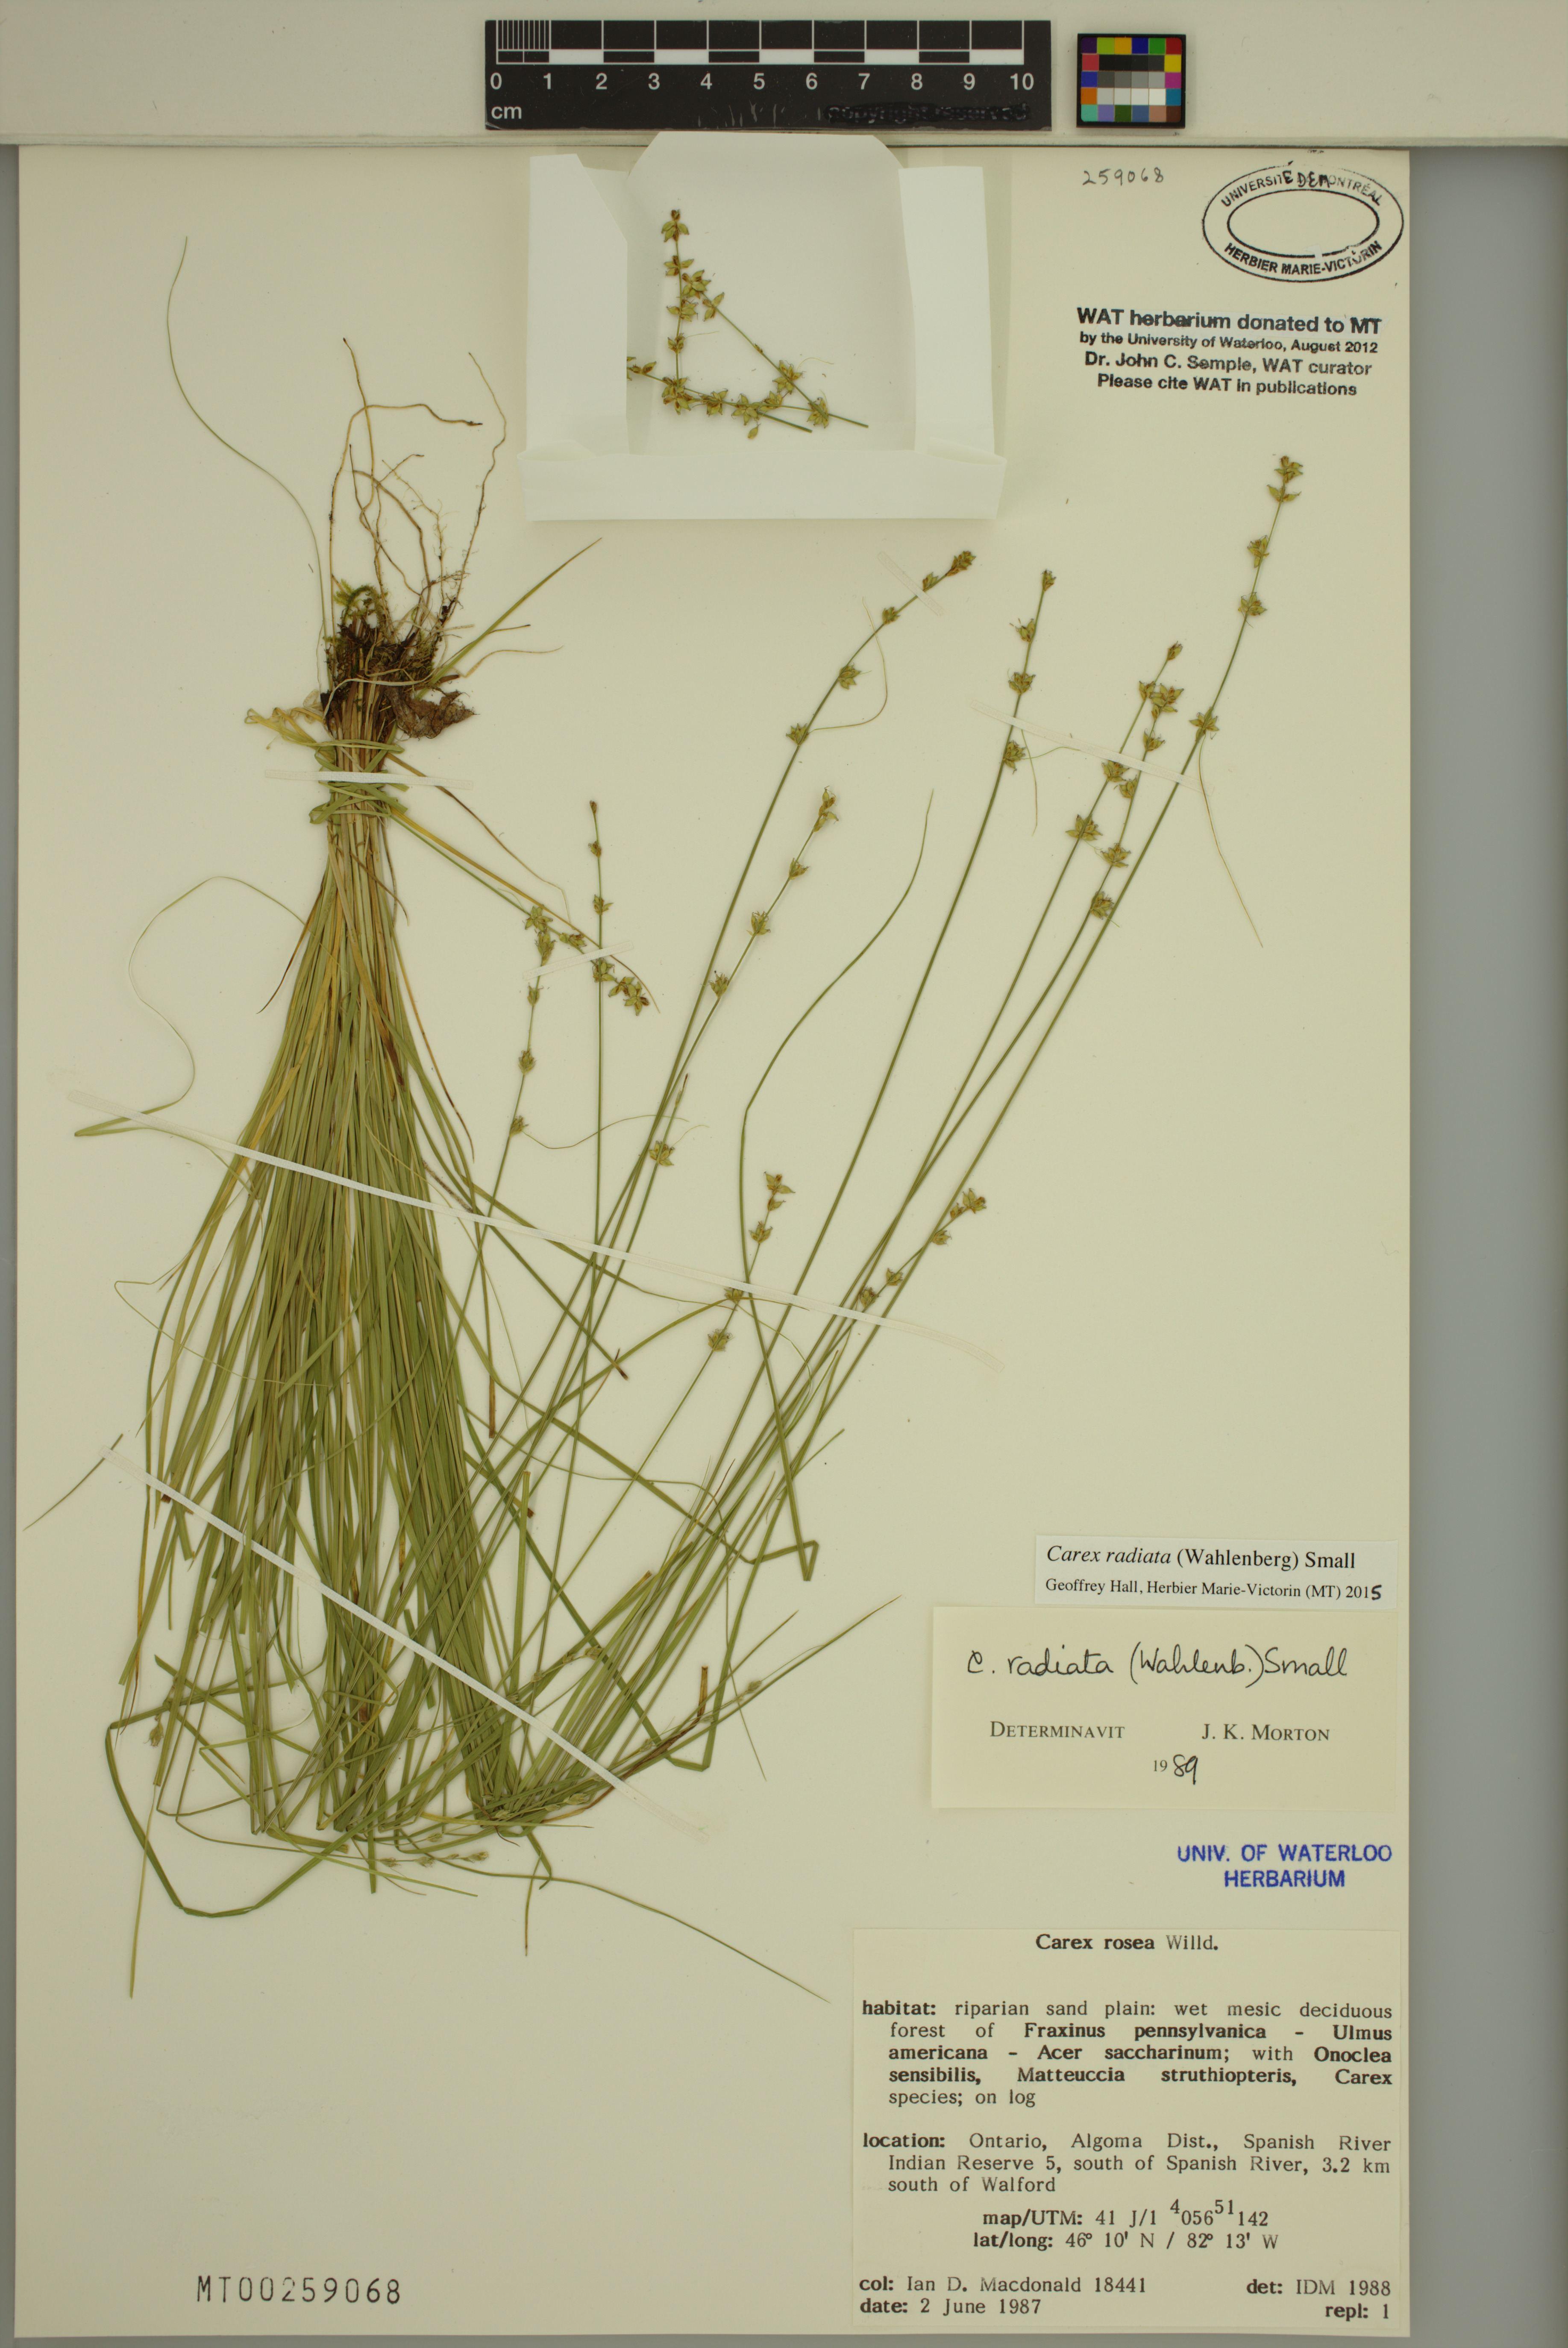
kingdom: Plantae
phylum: Tracheophyta
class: Liliopsida
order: Poales
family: Cyperaceae
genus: Carex
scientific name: Carex radiata
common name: Eastern star sedge
